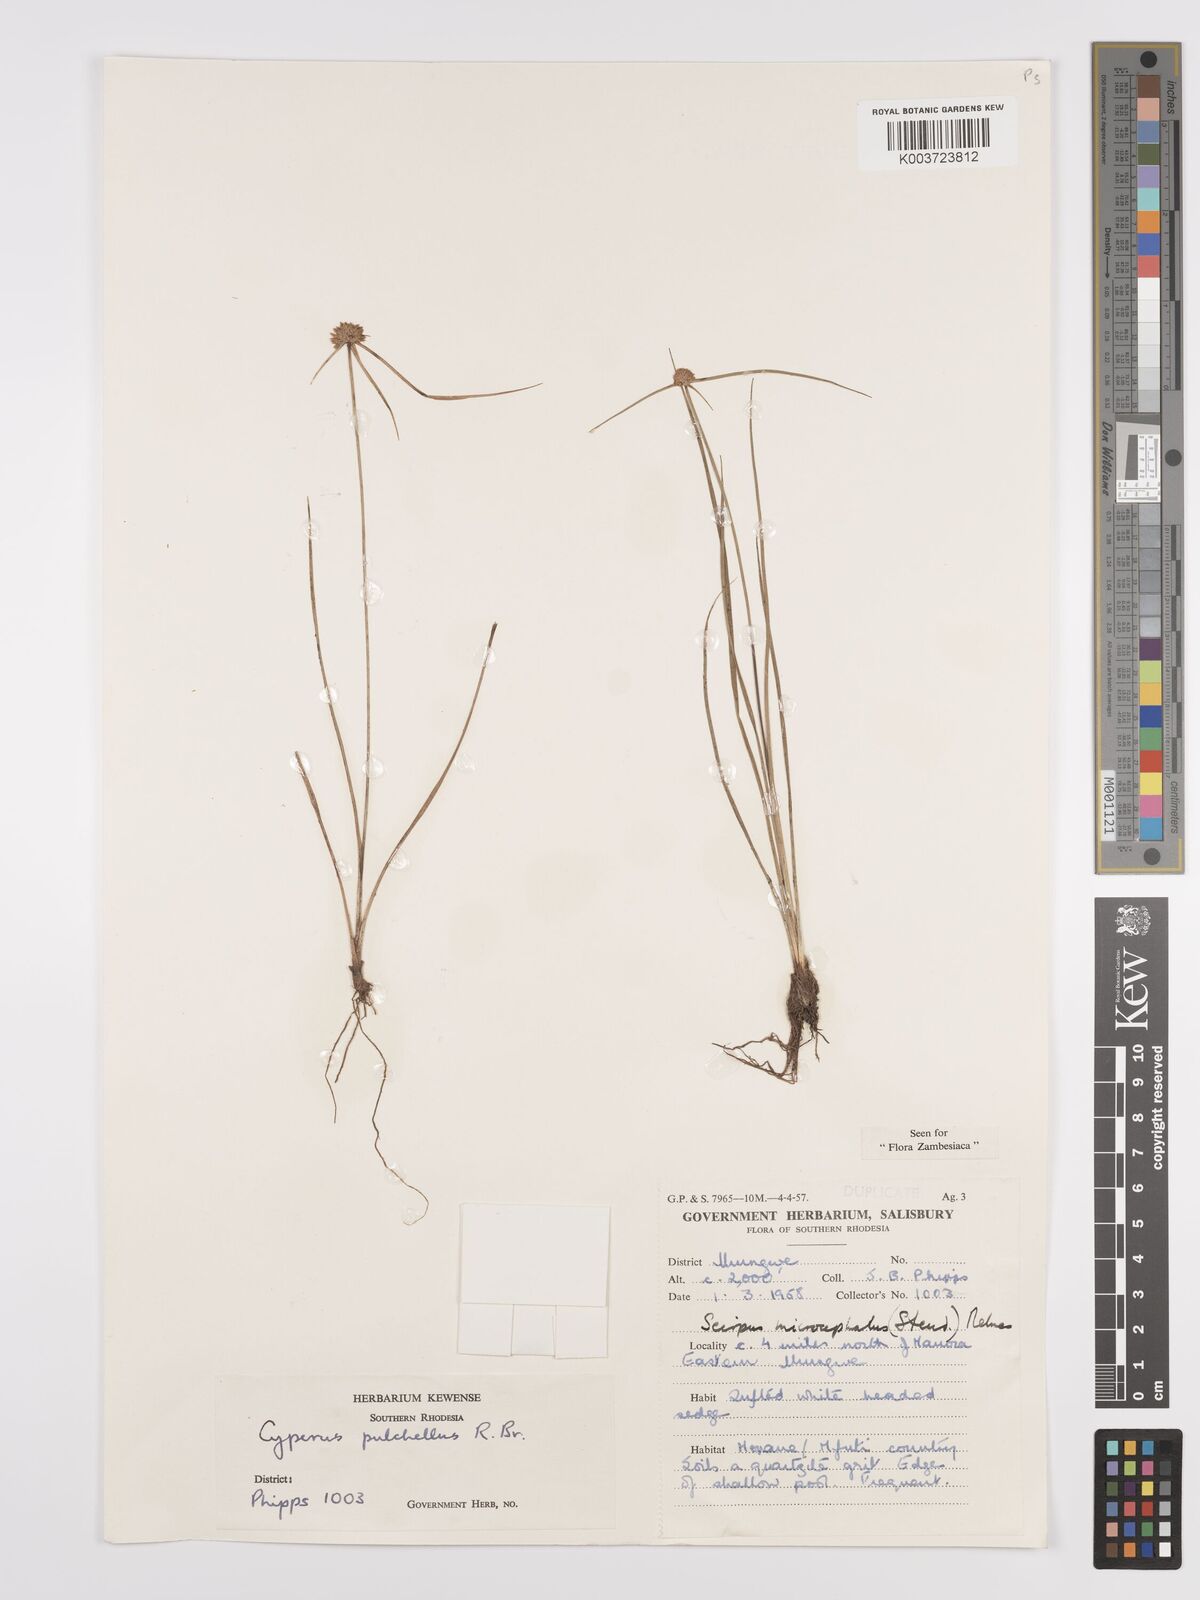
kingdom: Plantae
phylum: Tracheophyta
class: Liliopsida
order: Poales
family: Cyperaceae
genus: Cyperus
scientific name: Cyperus pulchellus
